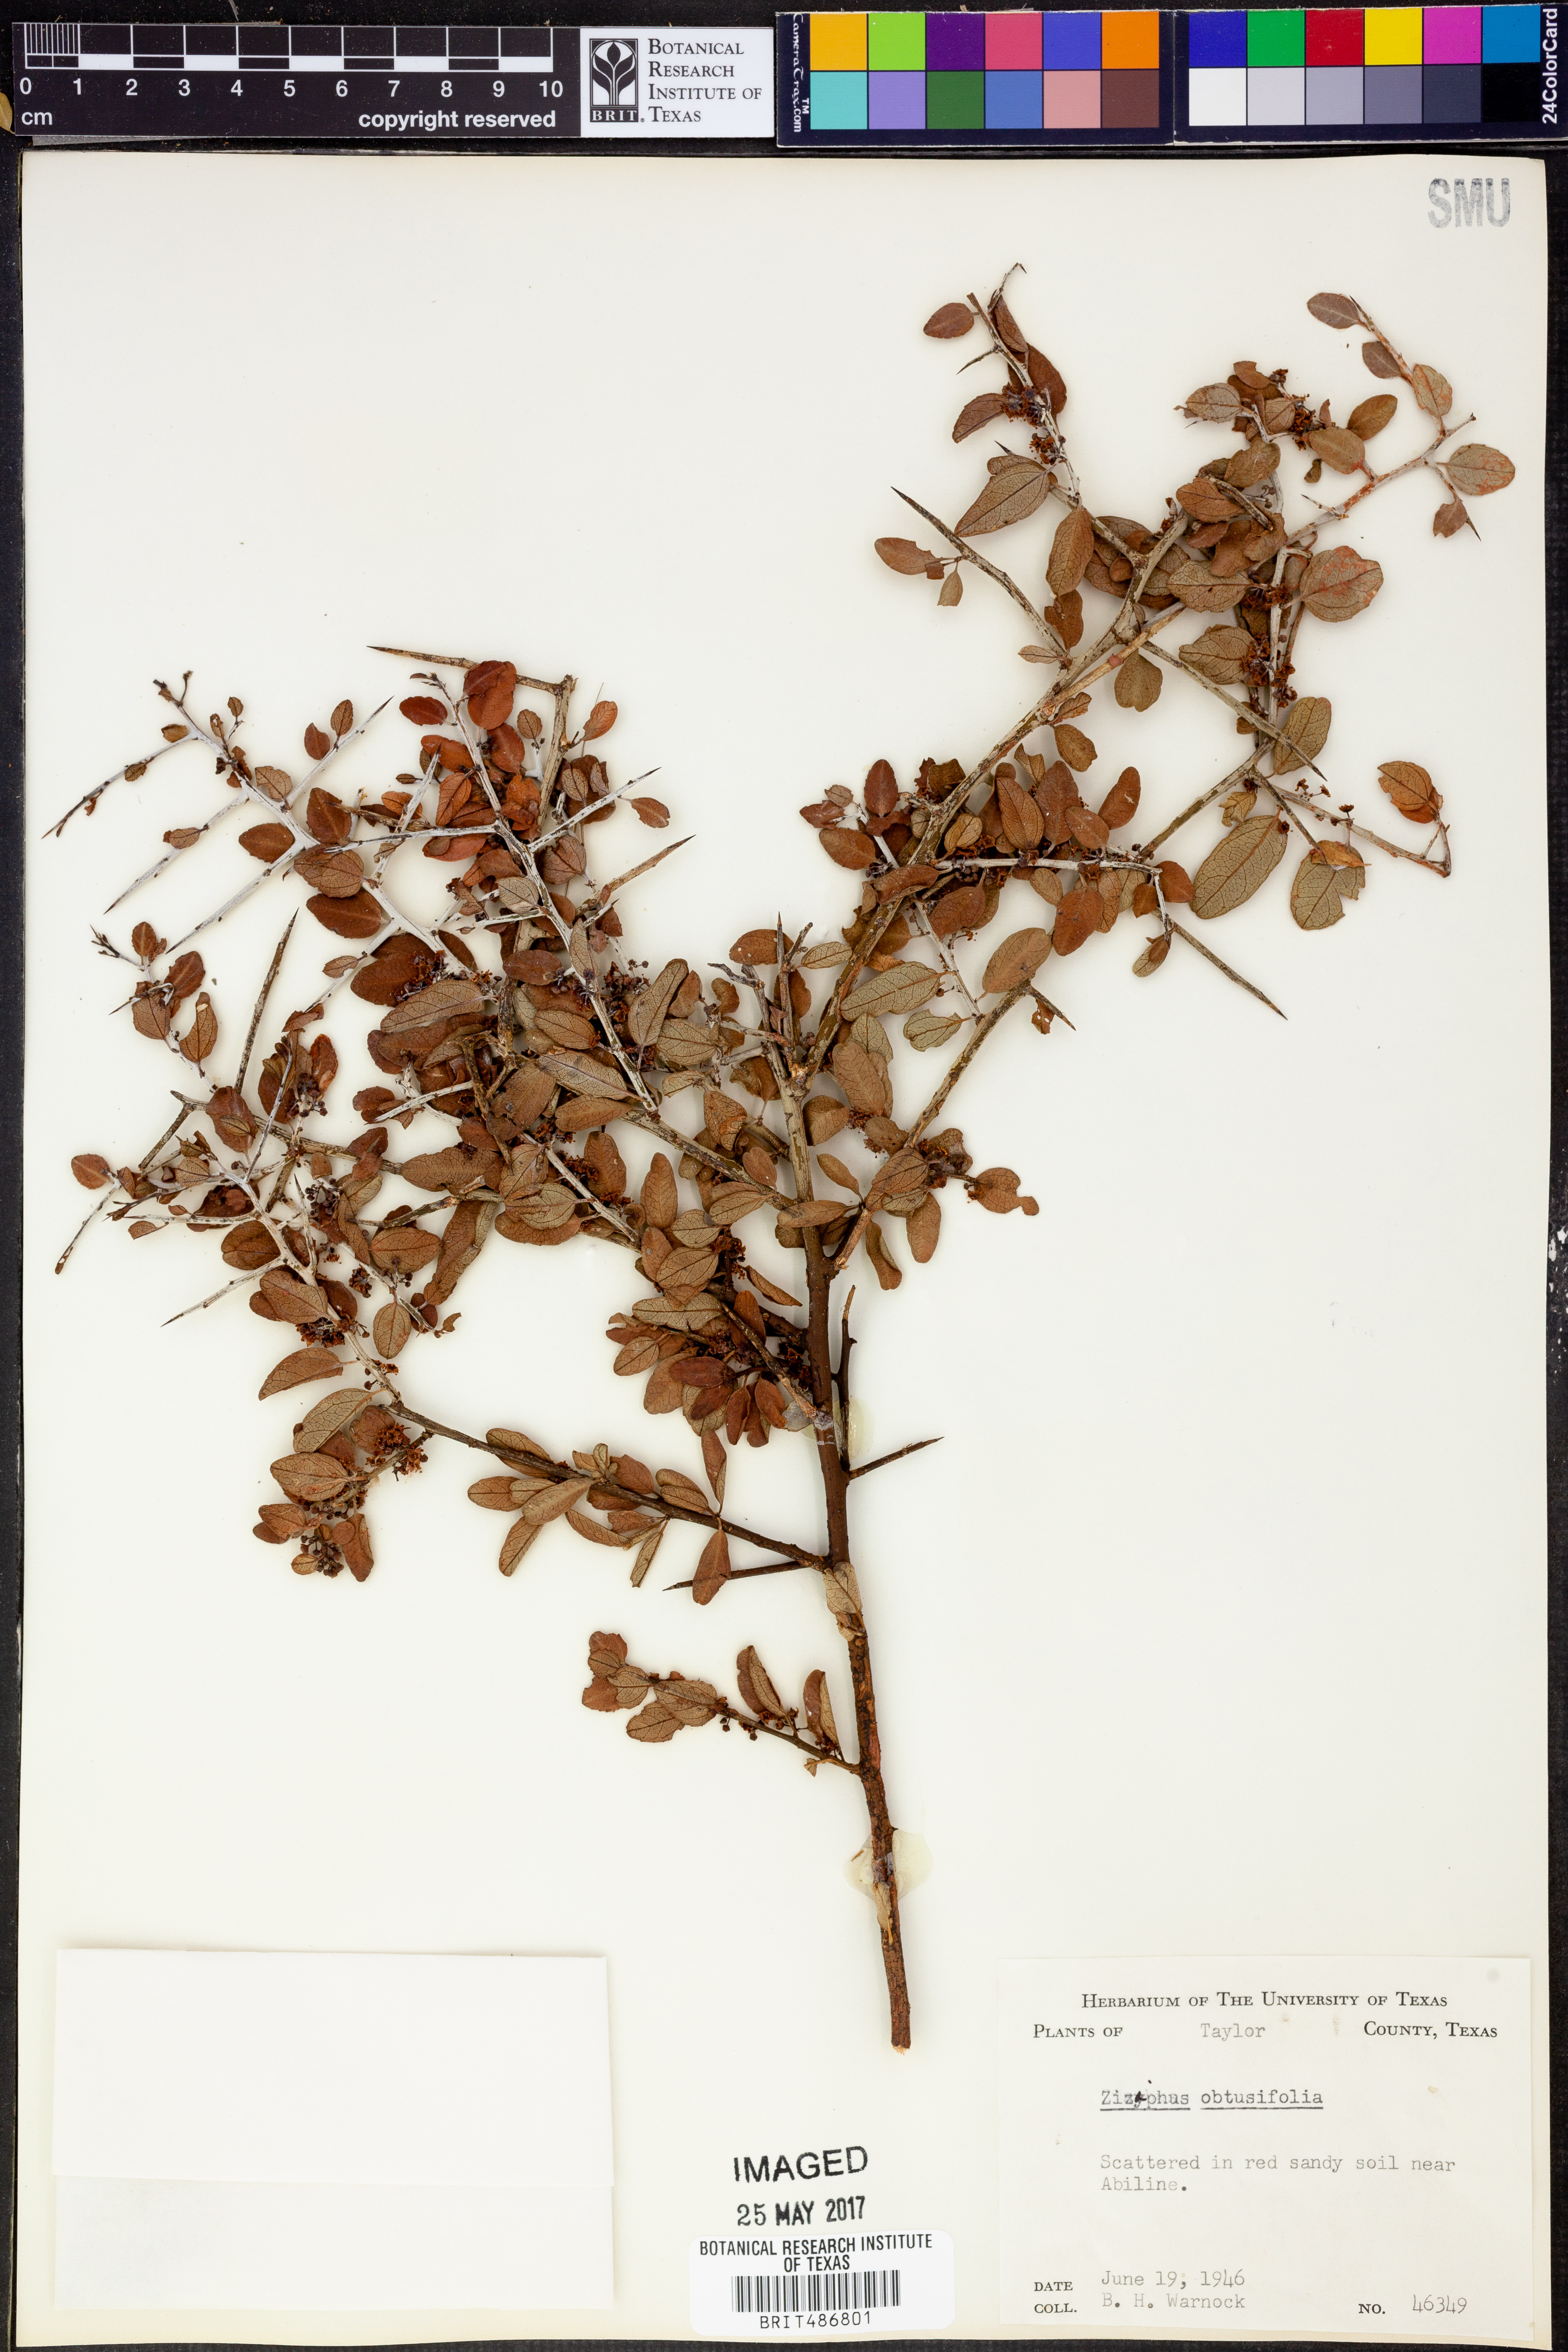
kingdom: Plantae
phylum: Tracheophyta
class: Magnoliopsida
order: Rosales
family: Rhamnaceae
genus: Sarcomphalus
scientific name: Sarcomphalus obtusifolius
